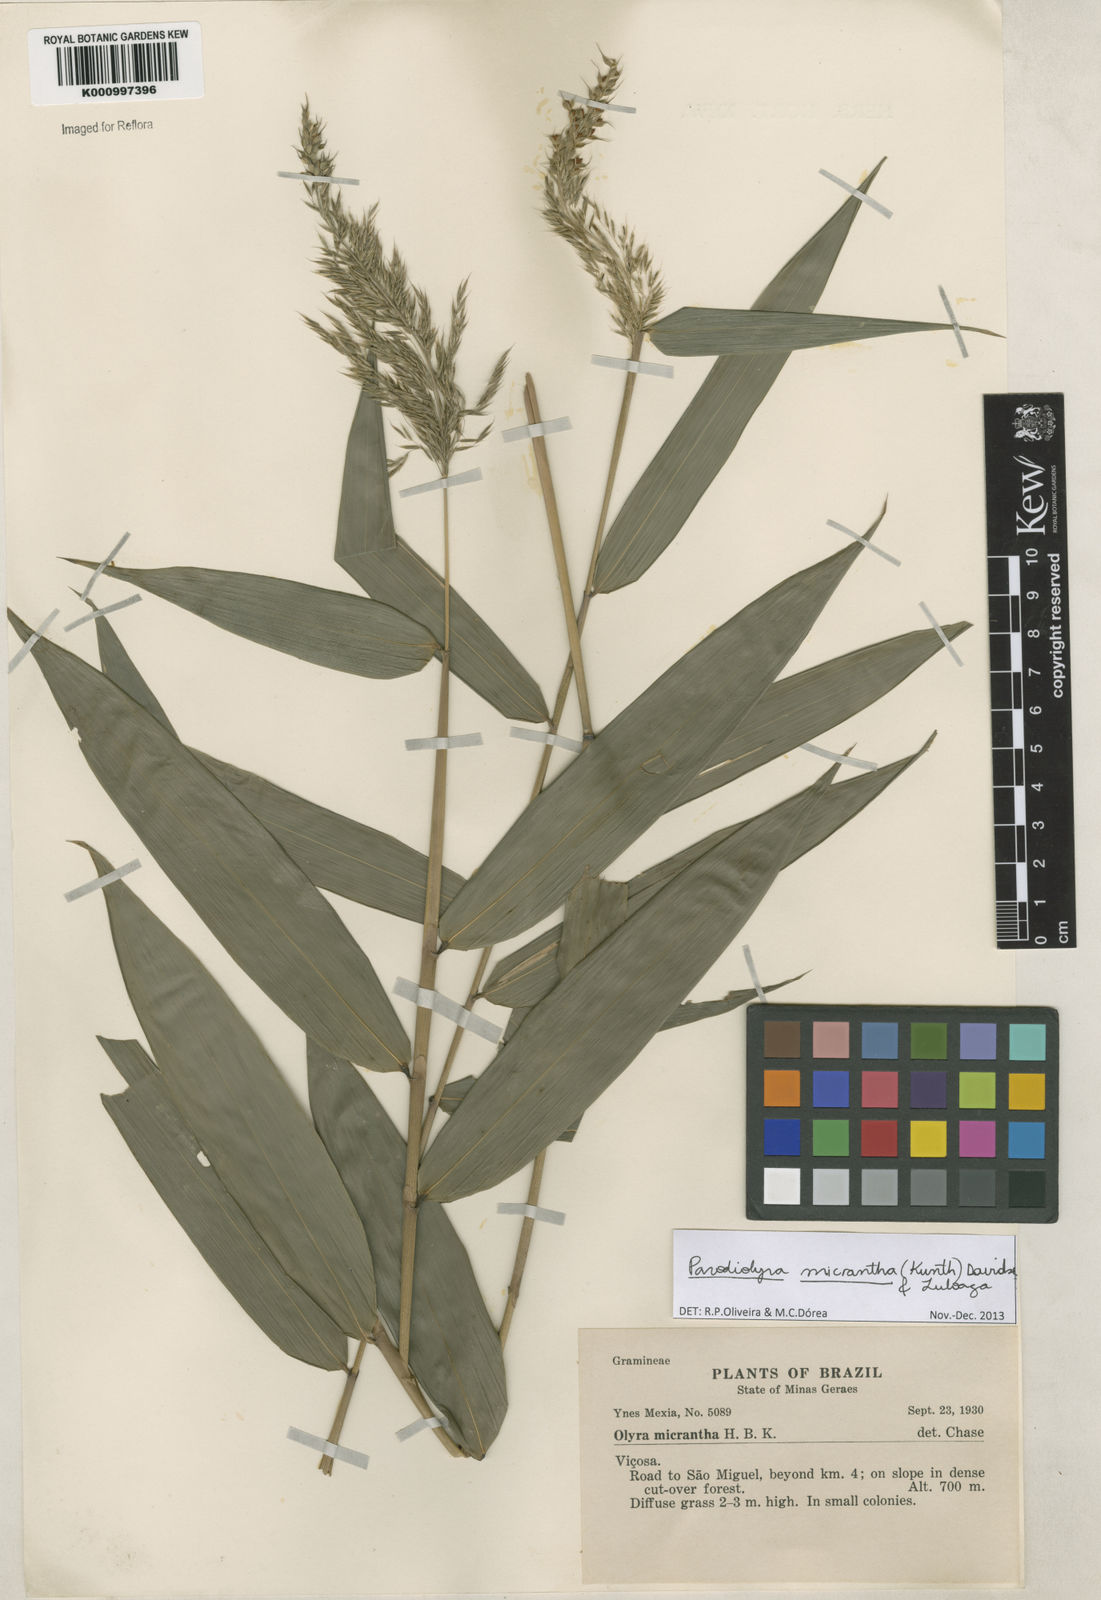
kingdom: Plantae
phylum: Tracheophyta
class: Liliopsida
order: Poales
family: Poaceae
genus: Taquara
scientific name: Taquara micrantha
